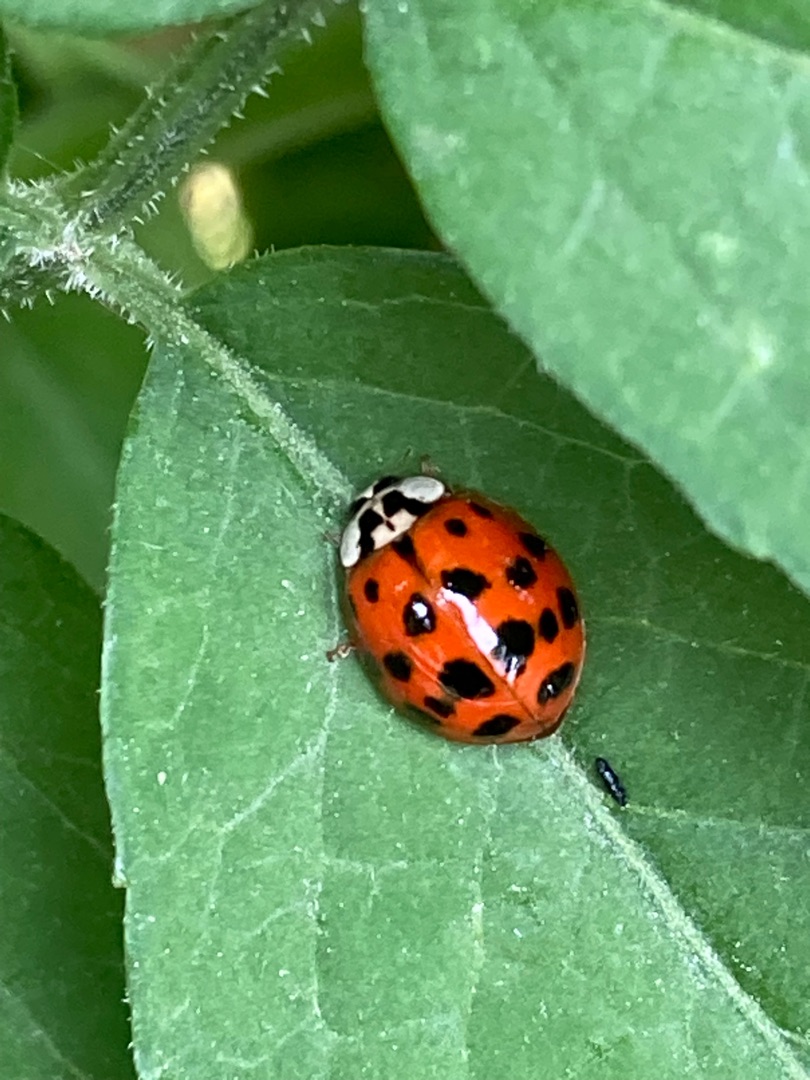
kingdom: Animalia
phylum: Arthropoda
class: Insecta
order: Coleoptera
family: Coccinellidae
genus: Harmonia
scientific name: Harmonia axyridis
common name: Harlekinmariehøne
